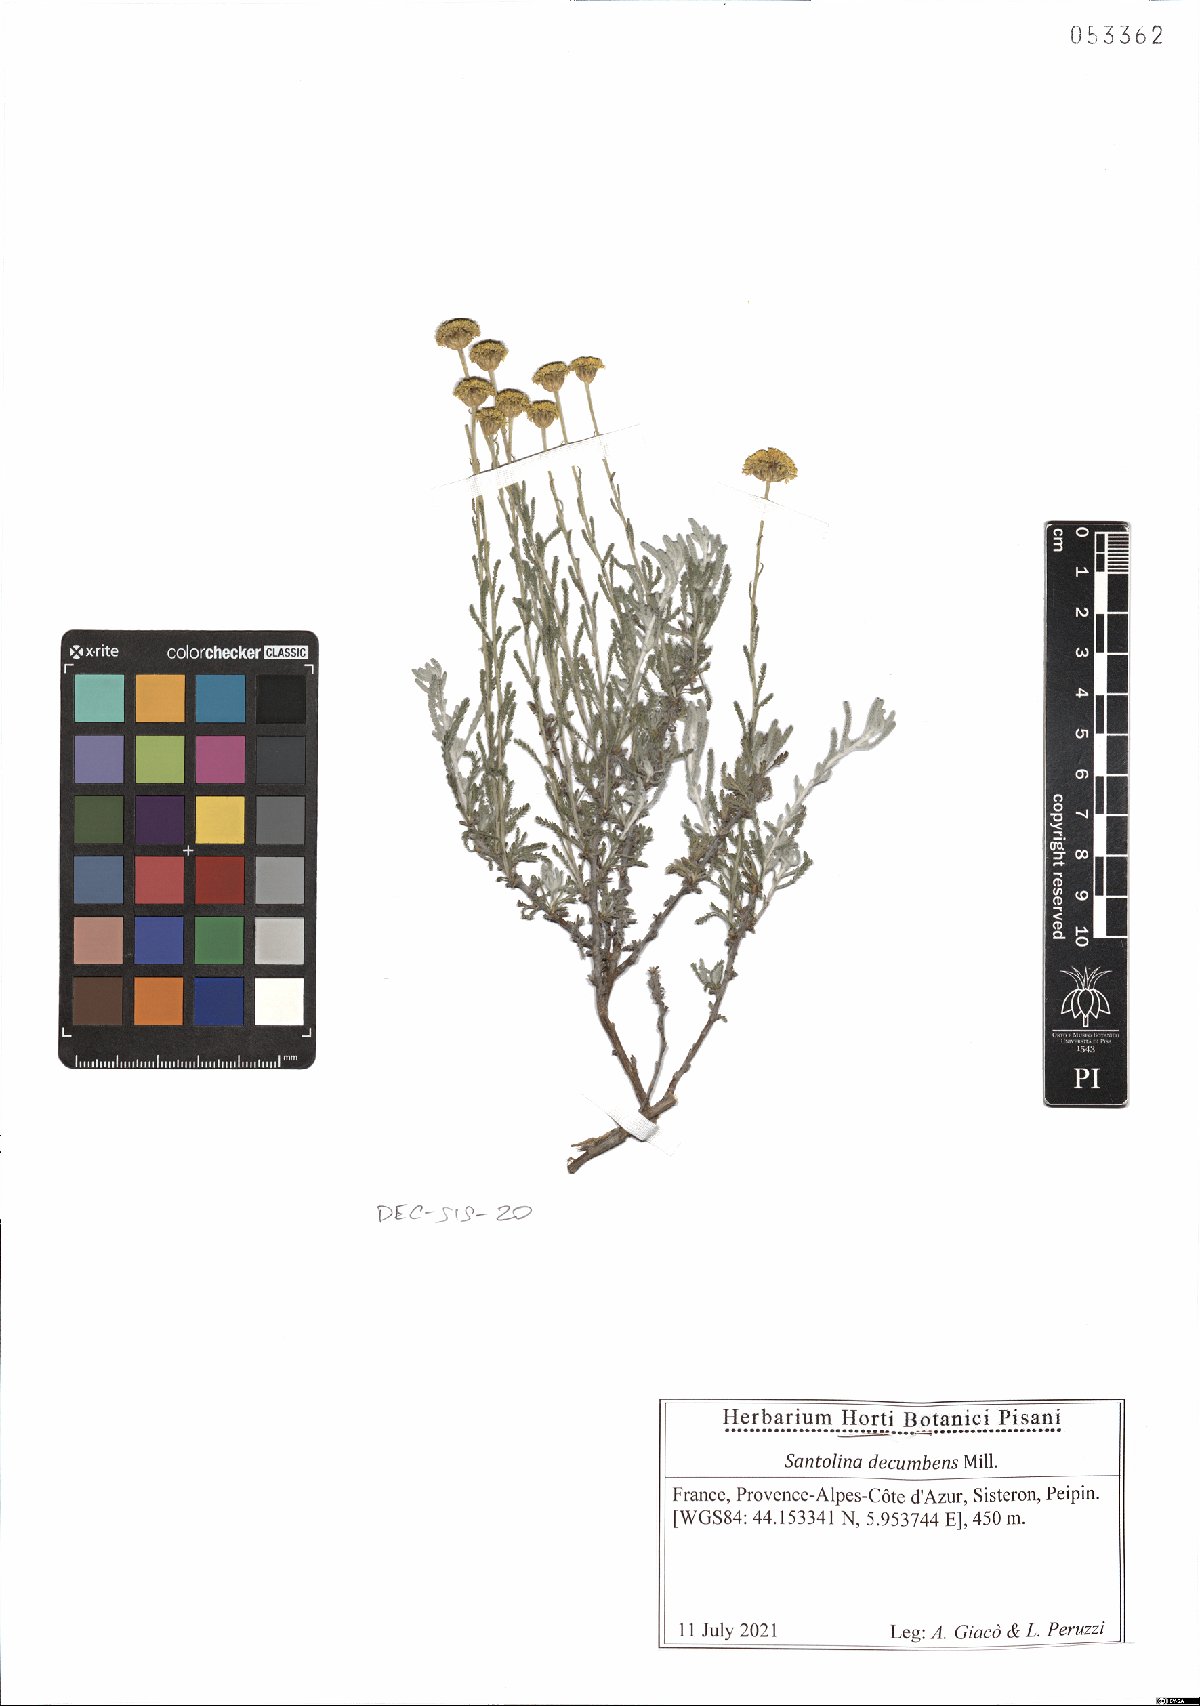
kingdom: Plantae
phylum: Tracheophyta
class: Magnoliopsida
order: Asterales
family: Asteraceae
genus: Santolina
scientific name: Santolina decumbens
